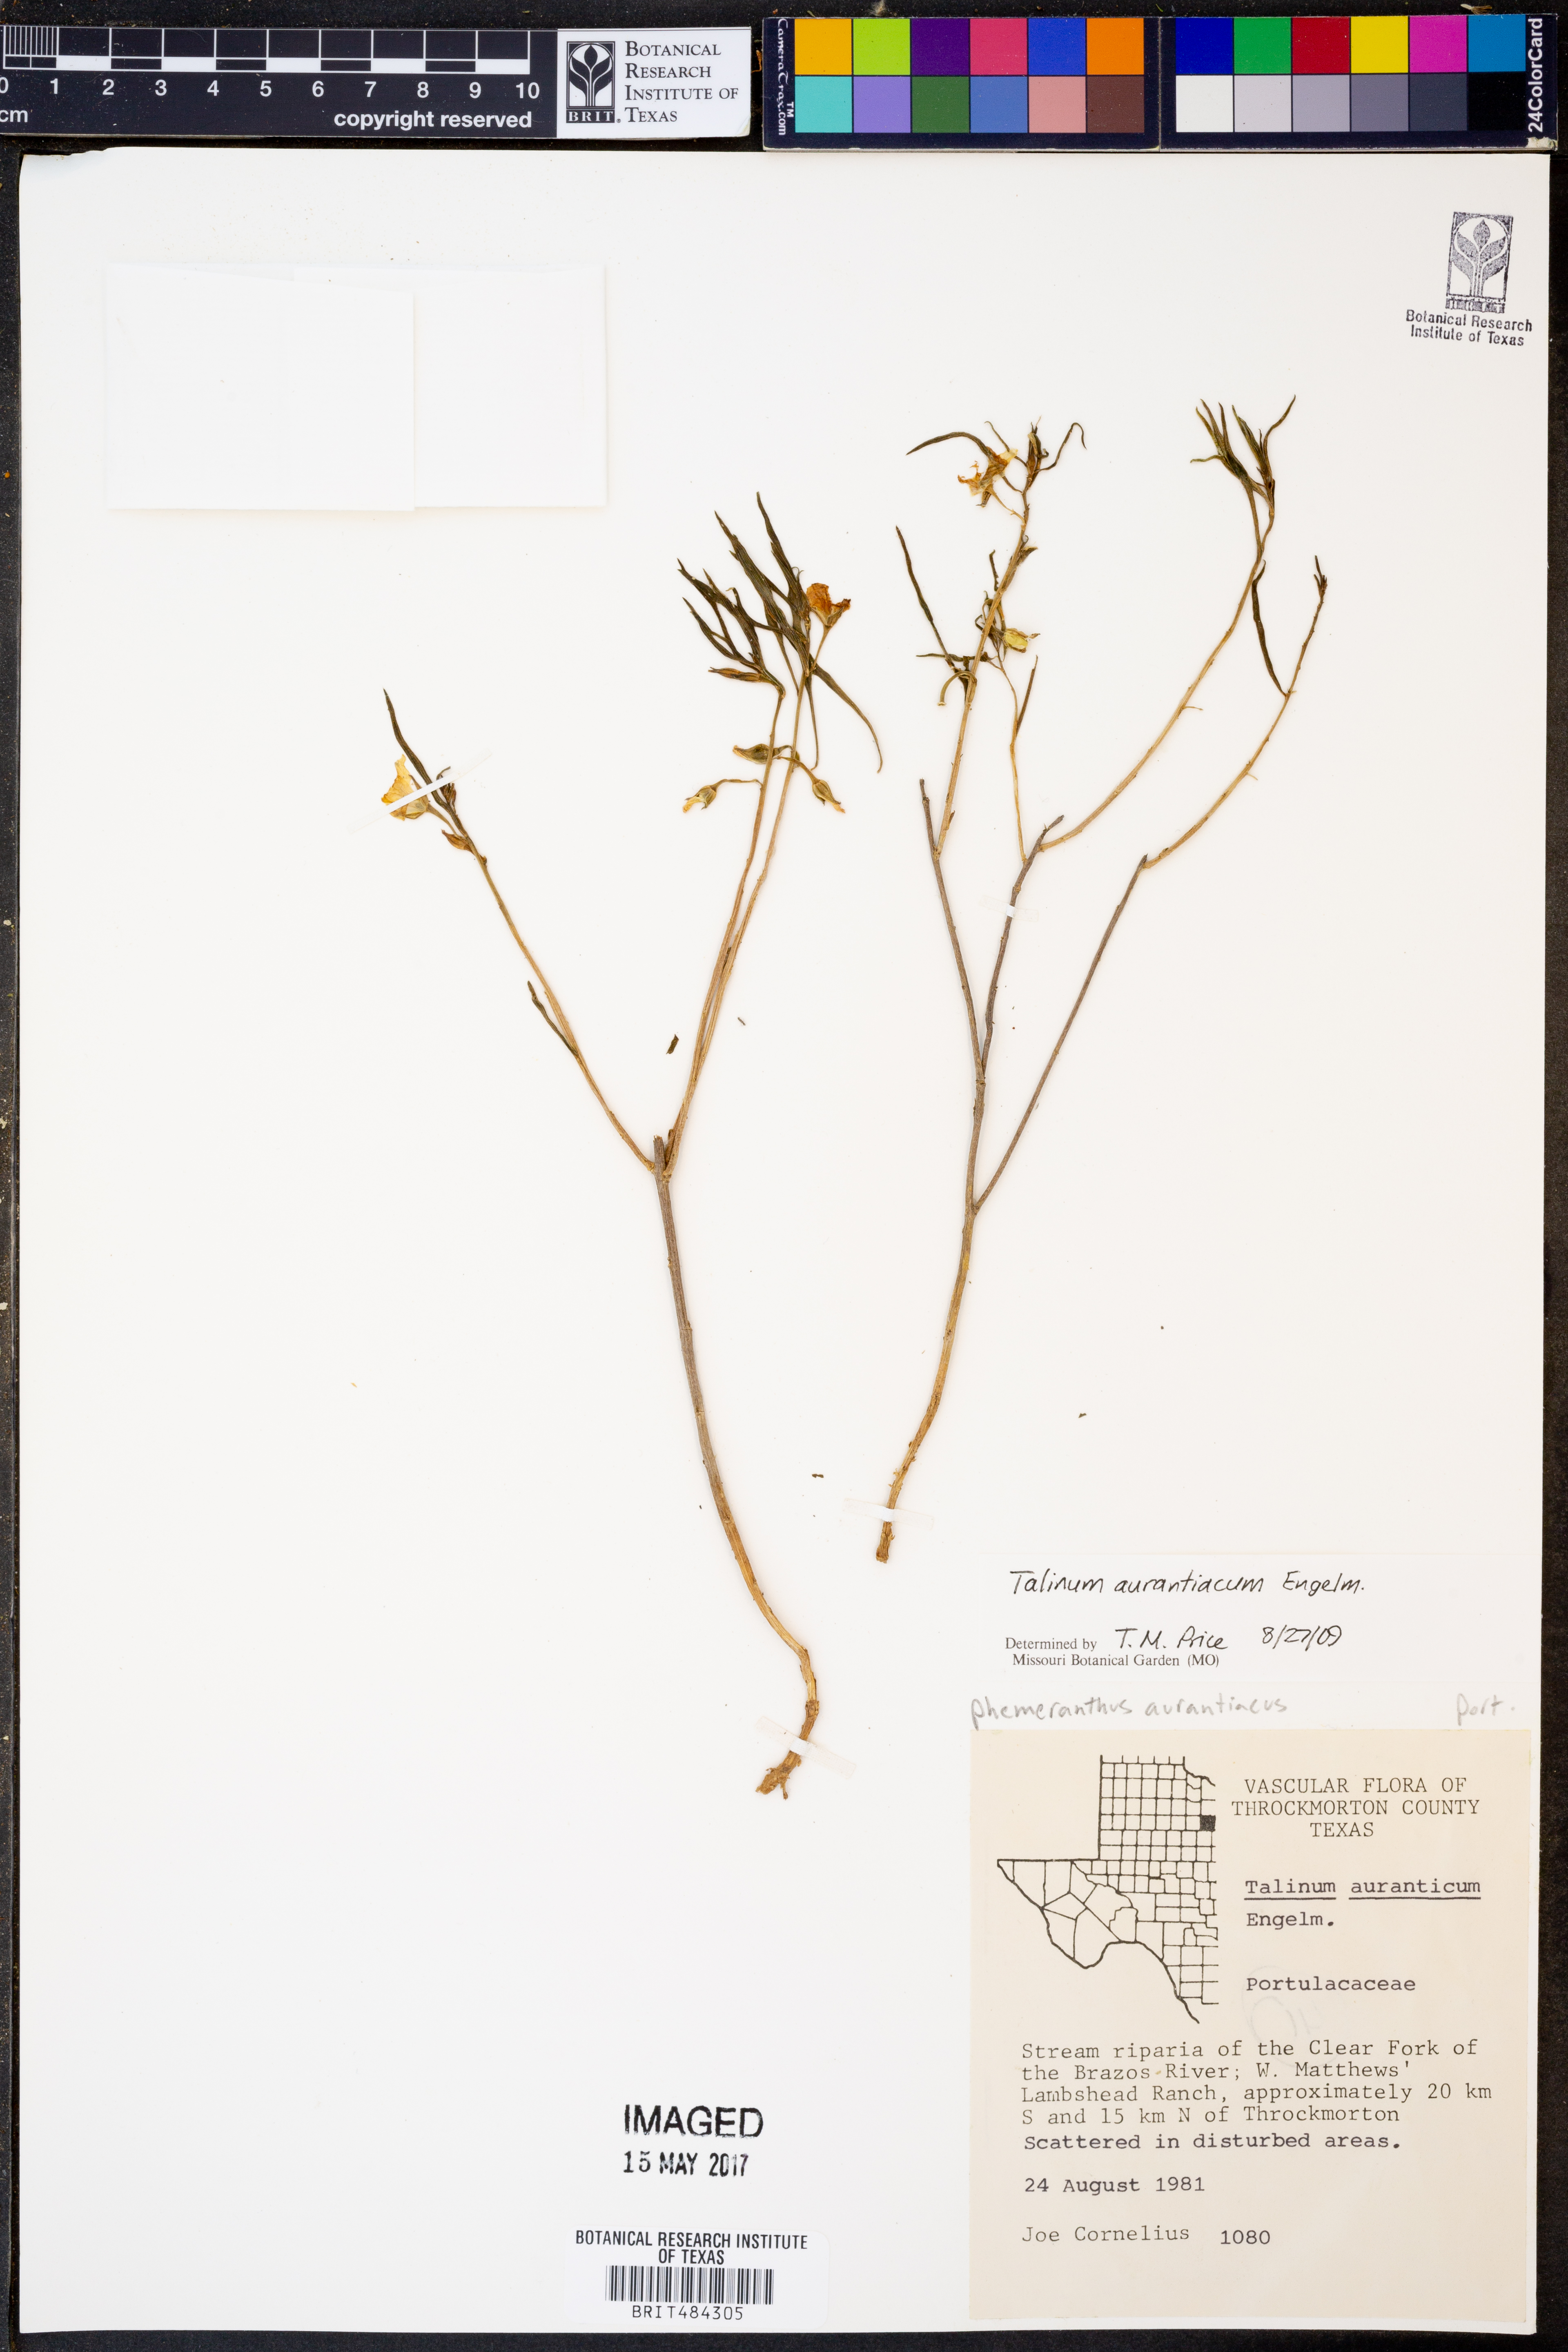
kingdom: Plantae
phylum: Tracheophyta
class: Magnoliopsida
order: Caryophyllales
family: Montiaceae
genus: Phemeranthus
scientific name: Phemeranthus aurantiacus
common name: Orange fameflower
